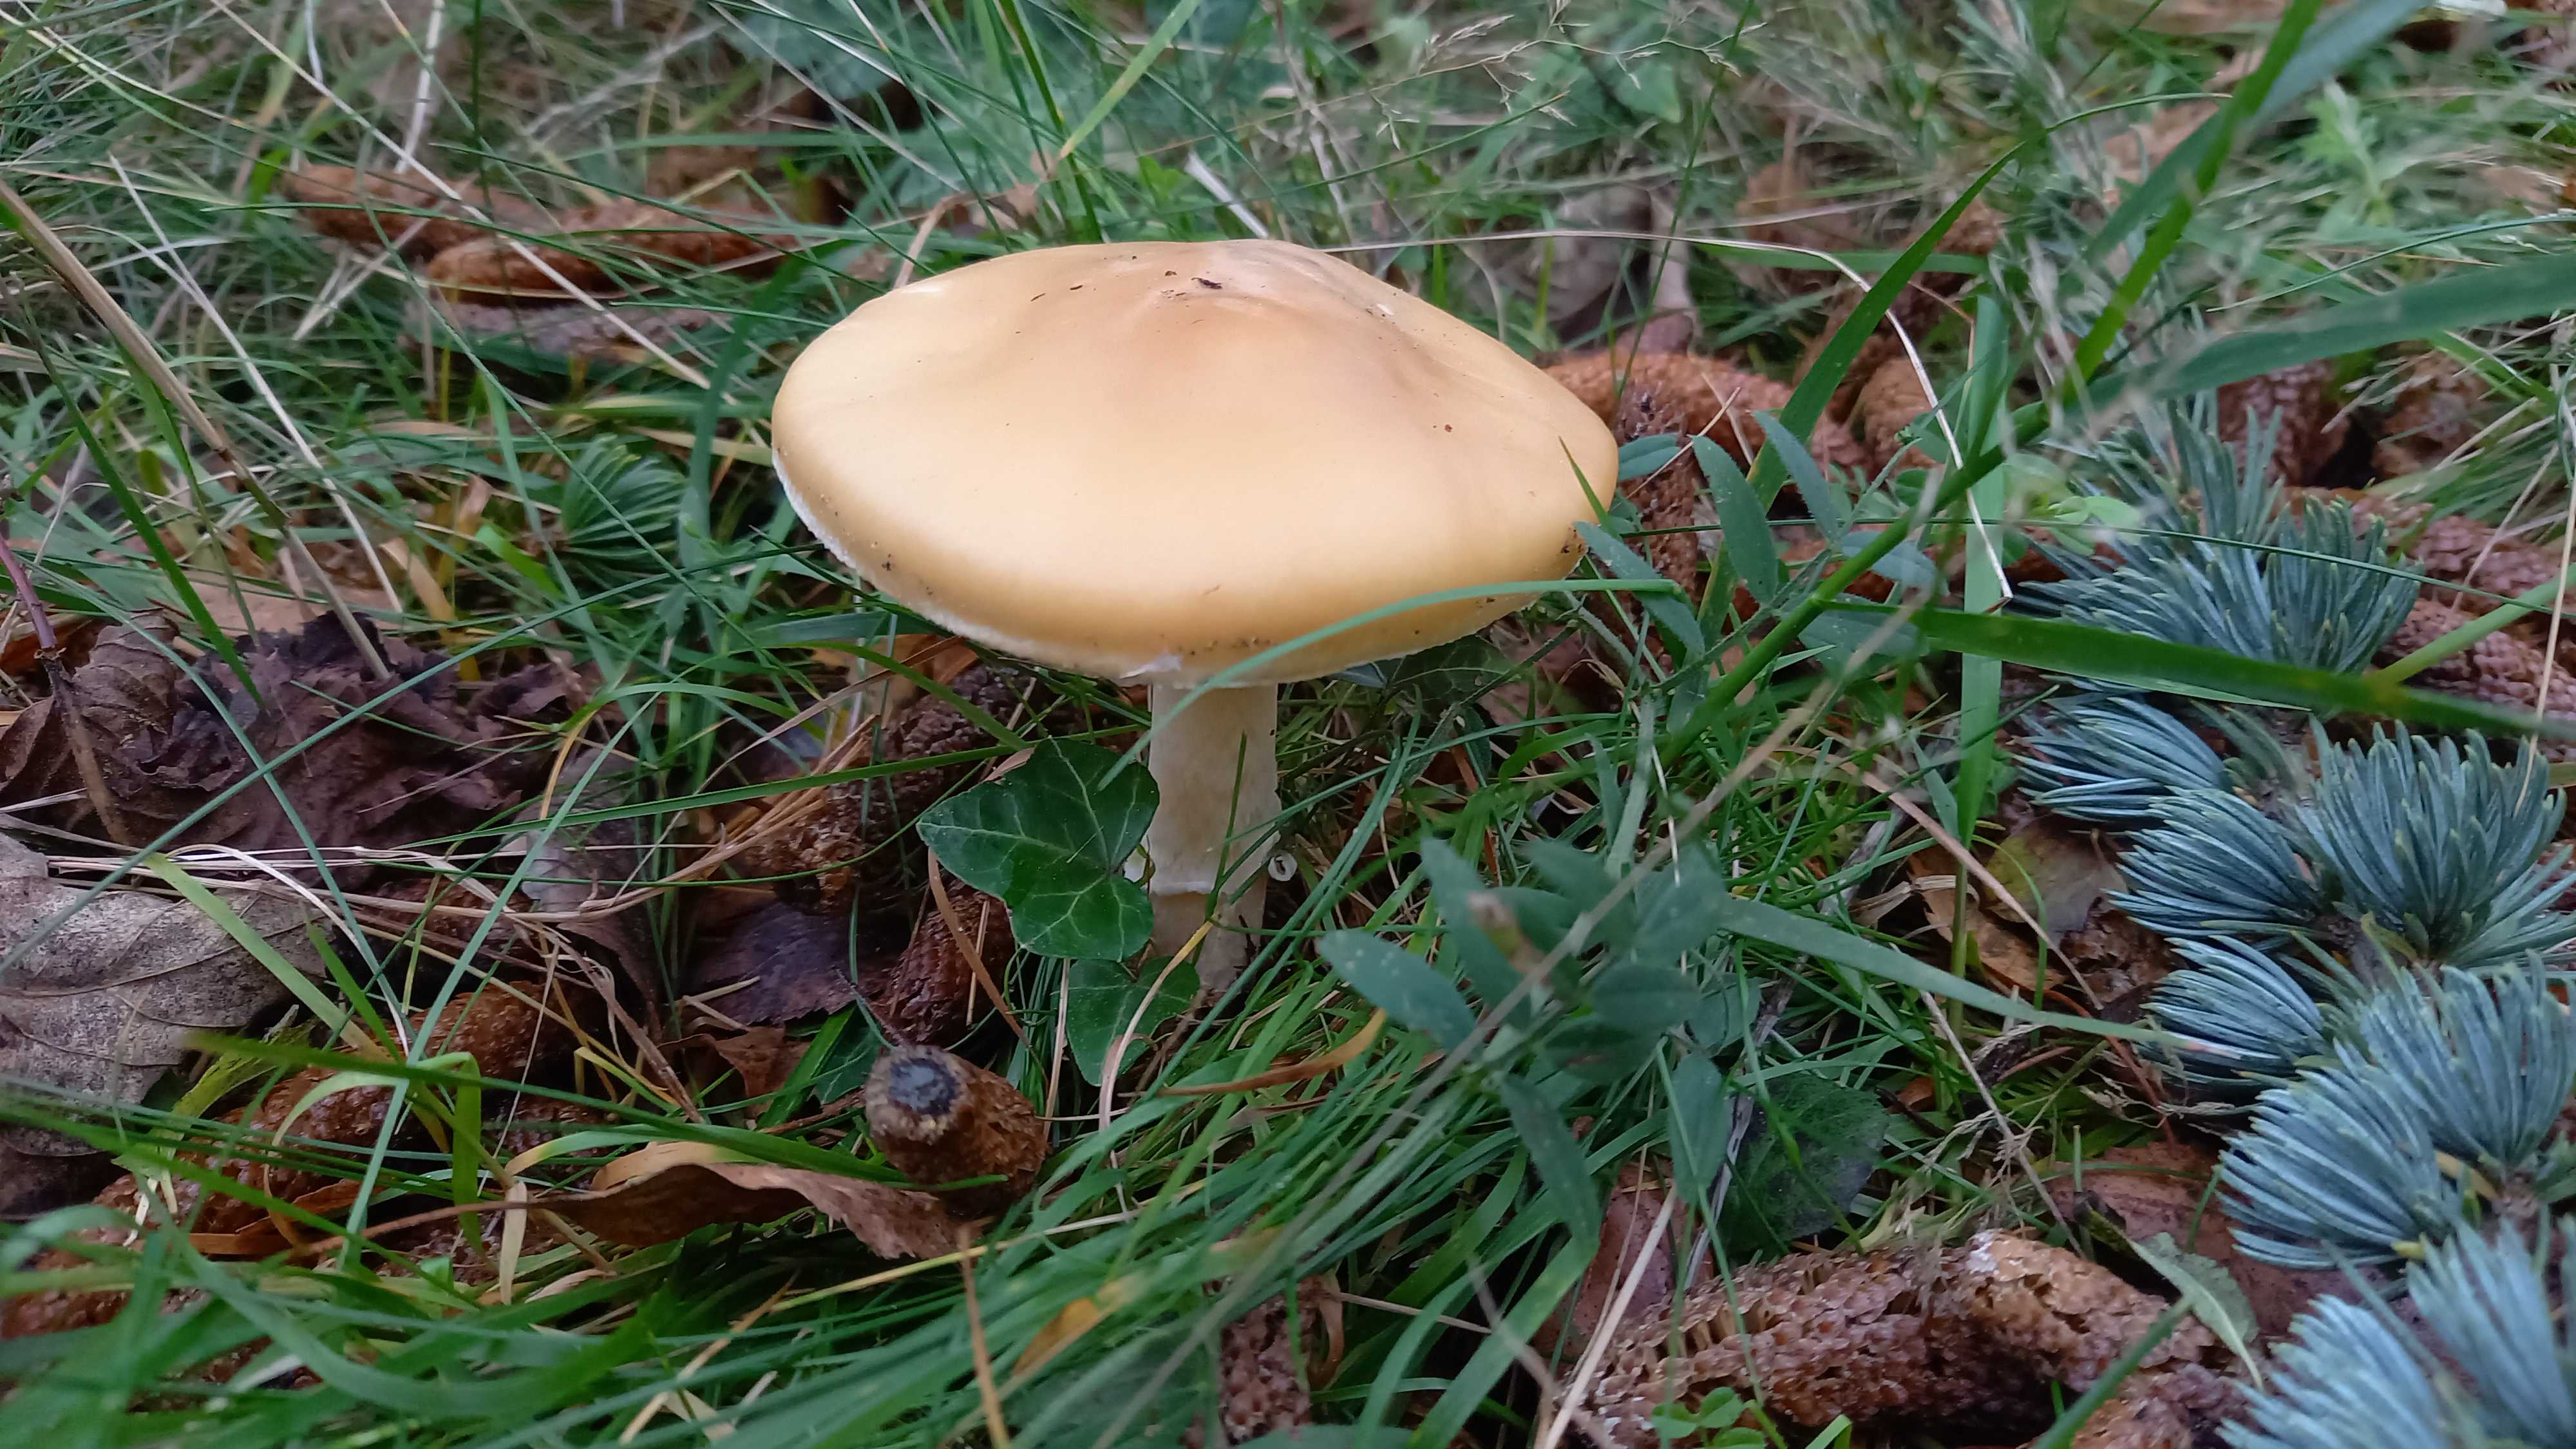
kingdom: Fungi
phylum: Basidiomycota
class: Agaricomycetes
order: Agaricales
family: Amanitaceae
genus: Amanita
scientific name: Amanita gemmata
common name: okkergul fluesvamp
